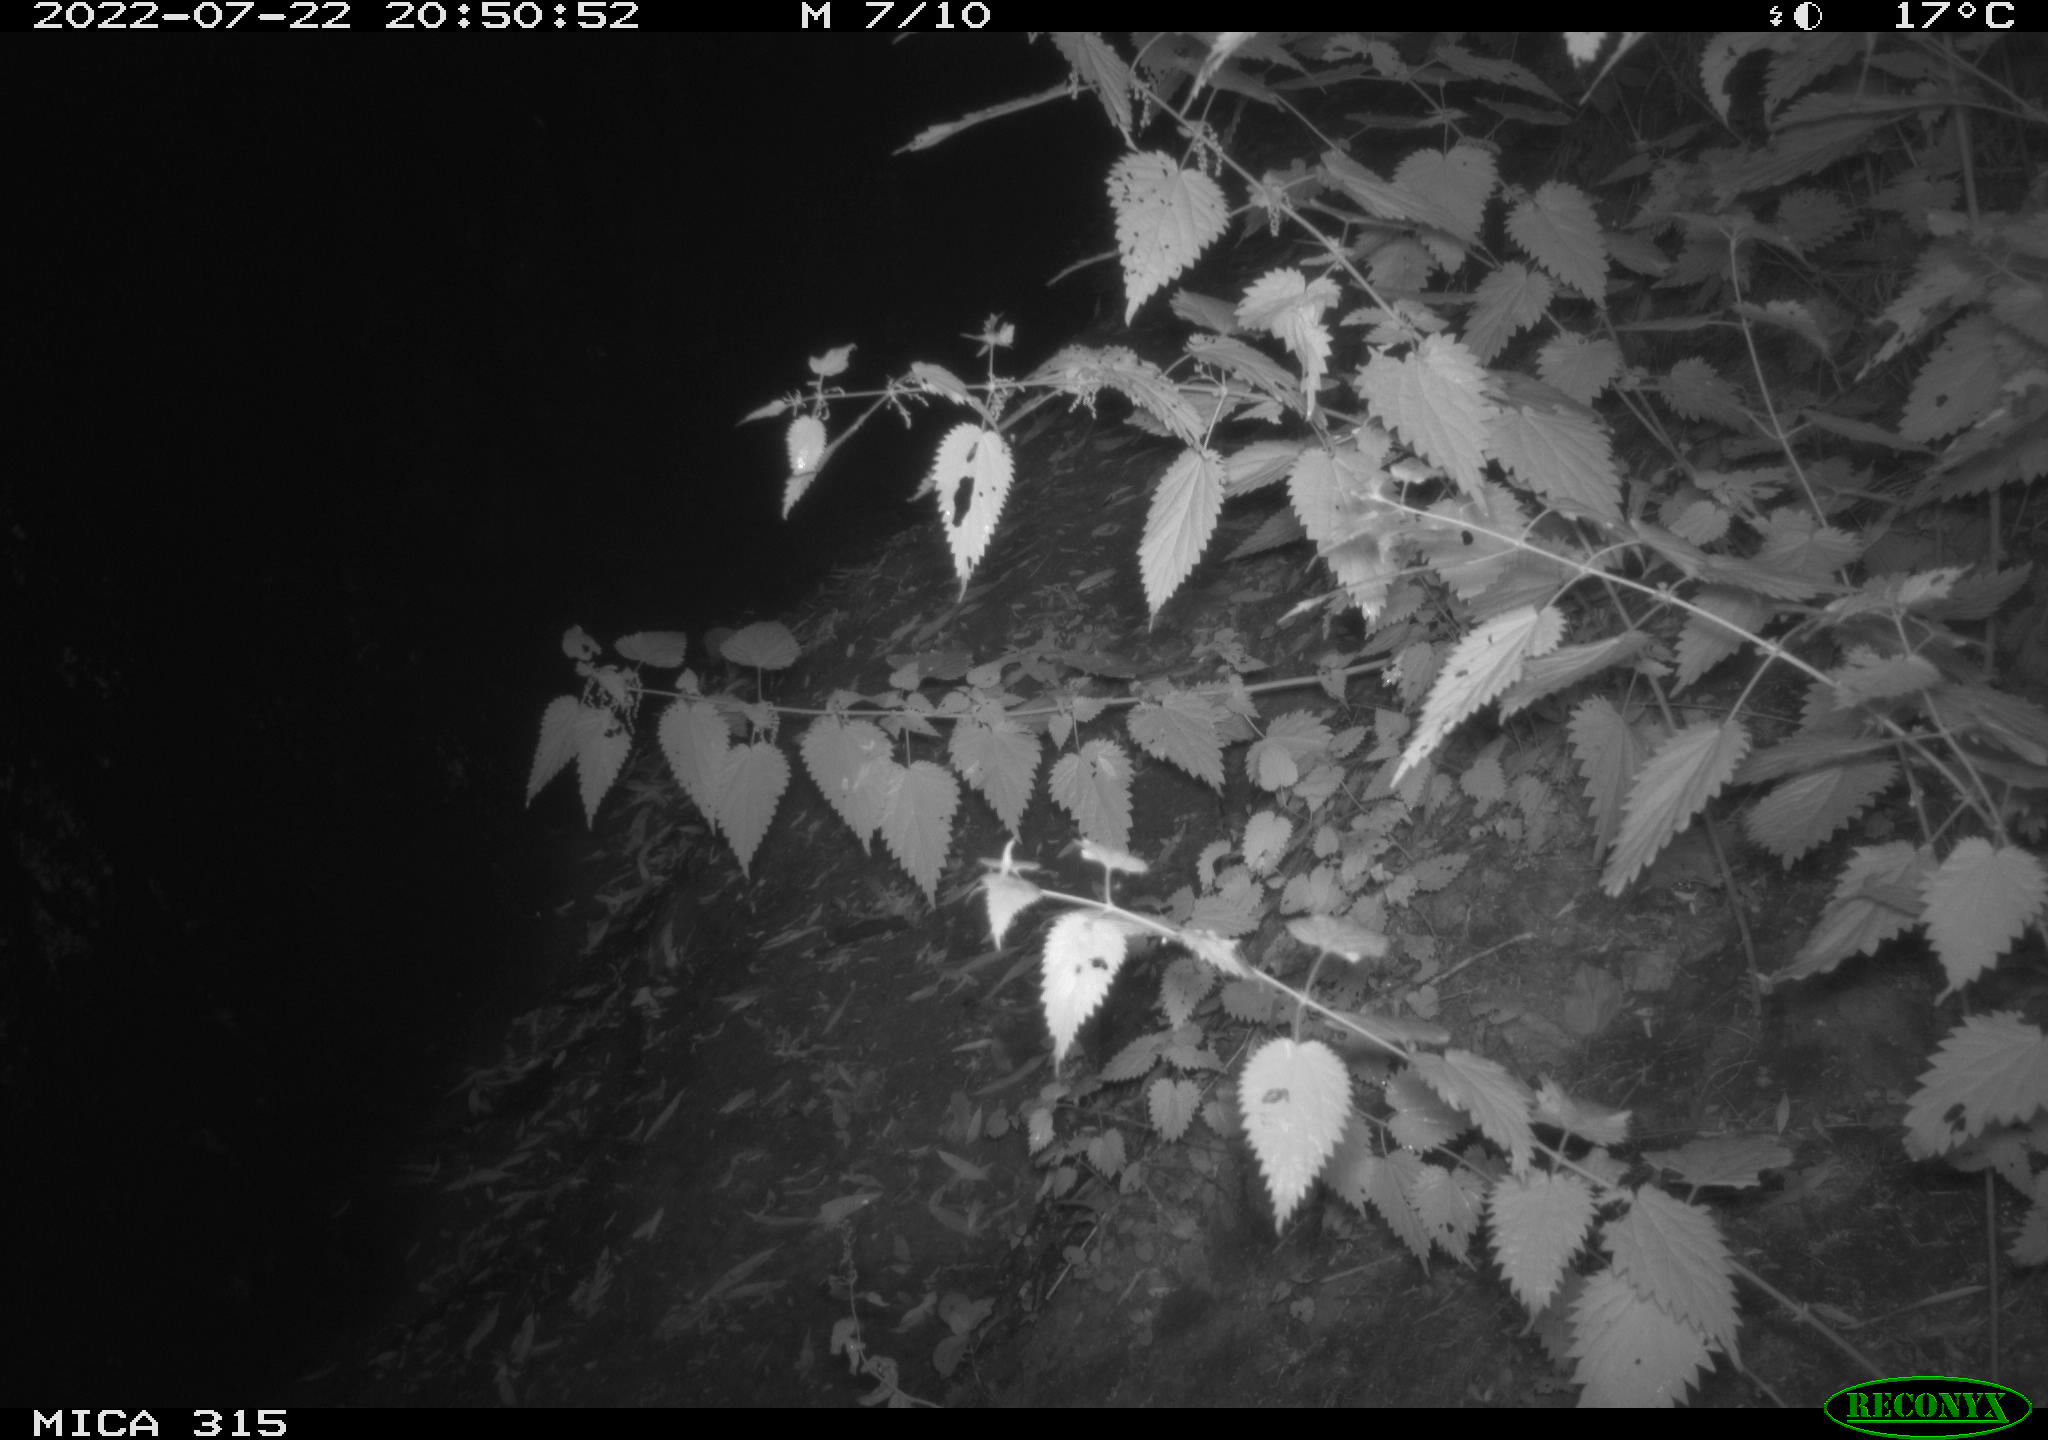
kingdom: Animalia
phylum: Chordata
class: Mammalia
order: Carnivora
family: Canidae
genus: Vulpes
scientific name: Vulpes vulpes
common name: Red fox
